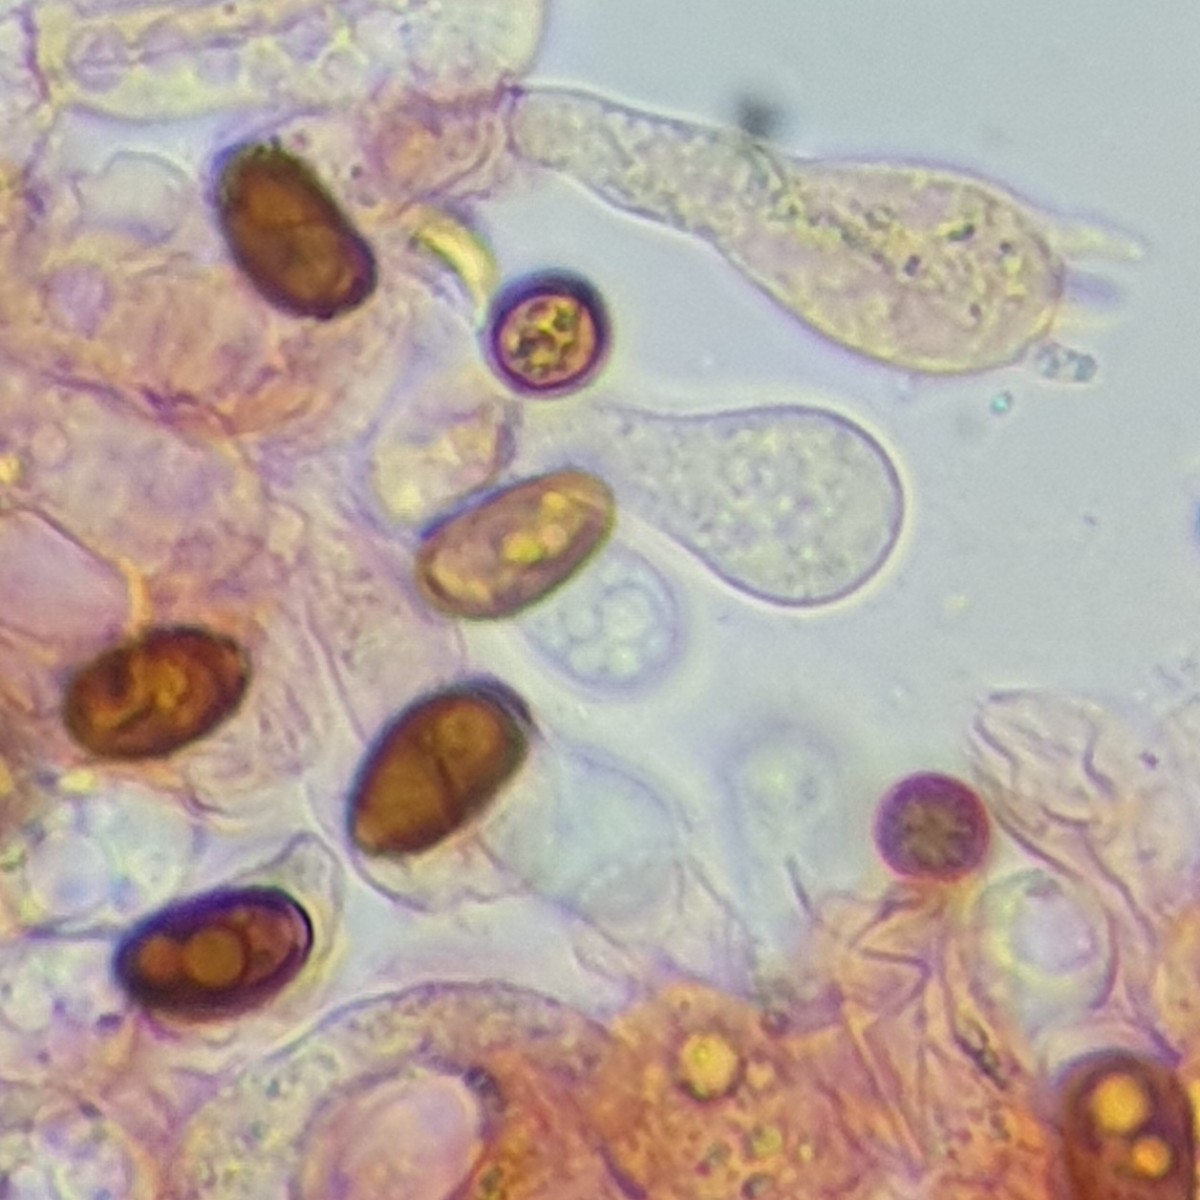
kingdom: Fungi
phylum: Basidiomycota
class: Agaricomycetes
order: Agaricales
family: Psathyrellaceae
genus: Psathyrella
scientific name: Psathyrella spadiceogrisea
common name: gråbrun mørkhat
